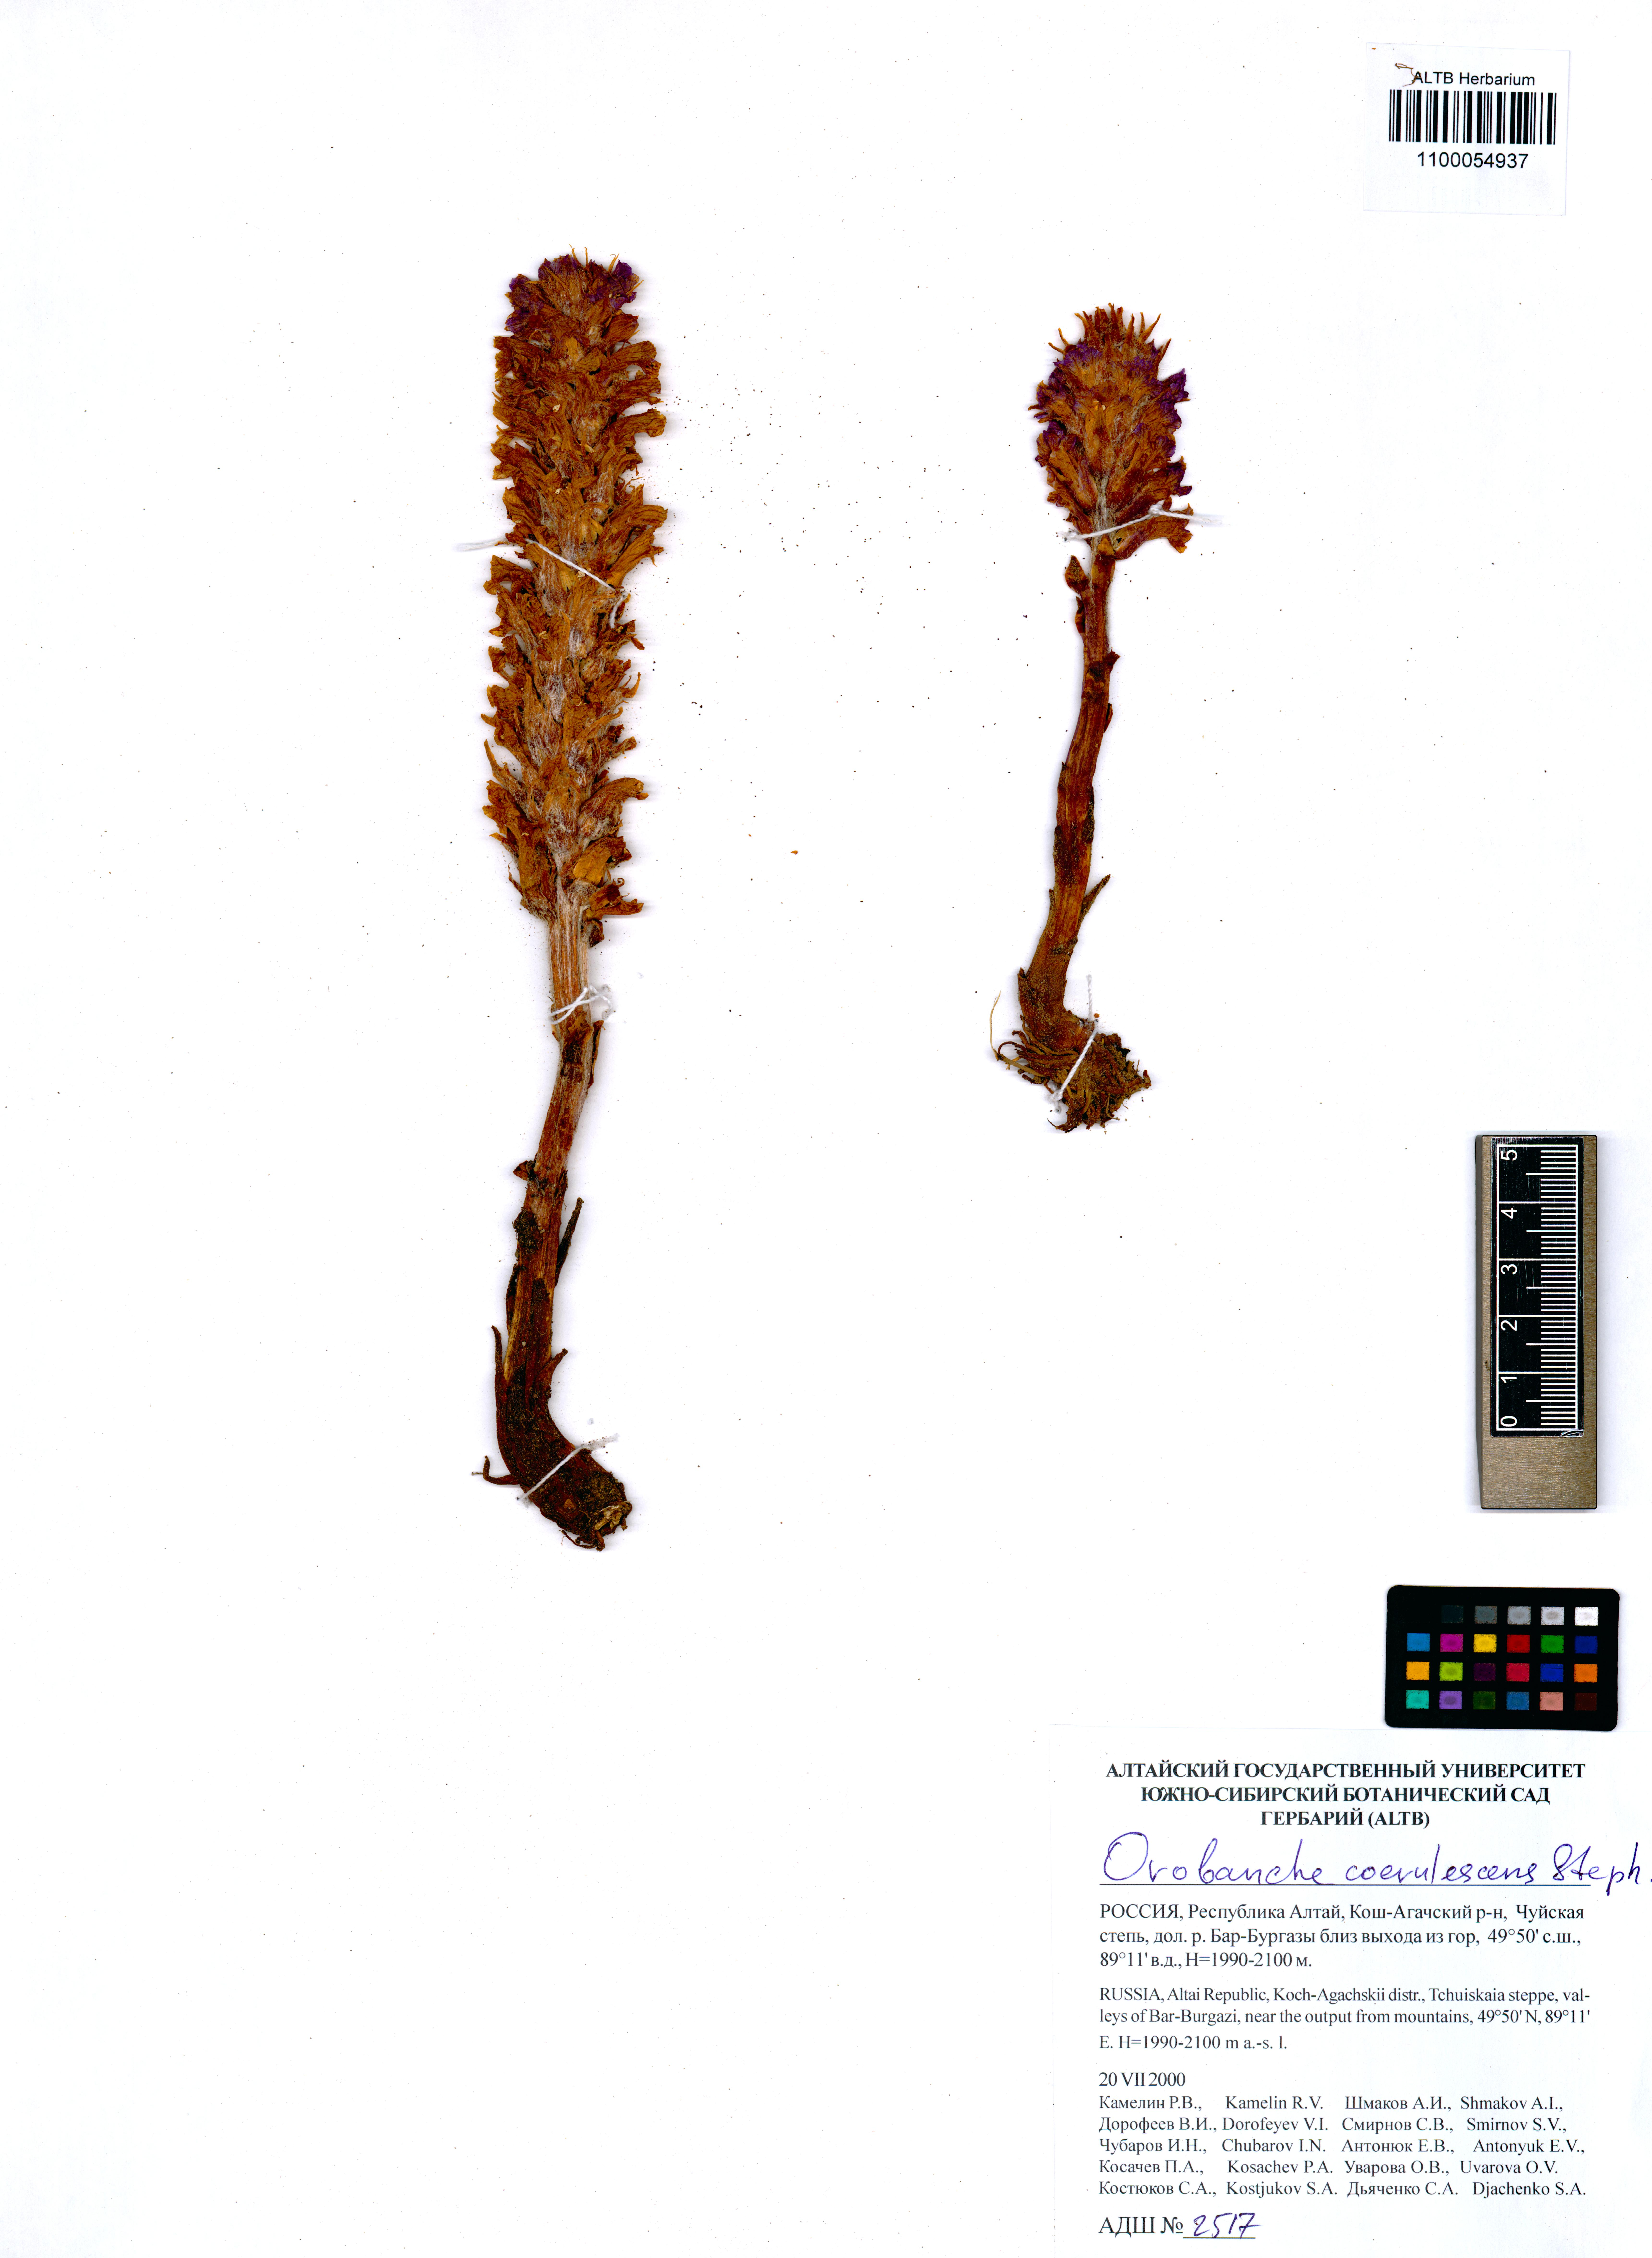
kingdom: Plantae
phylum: Tracheophyta
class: Magnoliopsida
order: Lamiales
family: Orobanchaceae
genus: Orobanche
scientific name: Orobanche coerulescens
